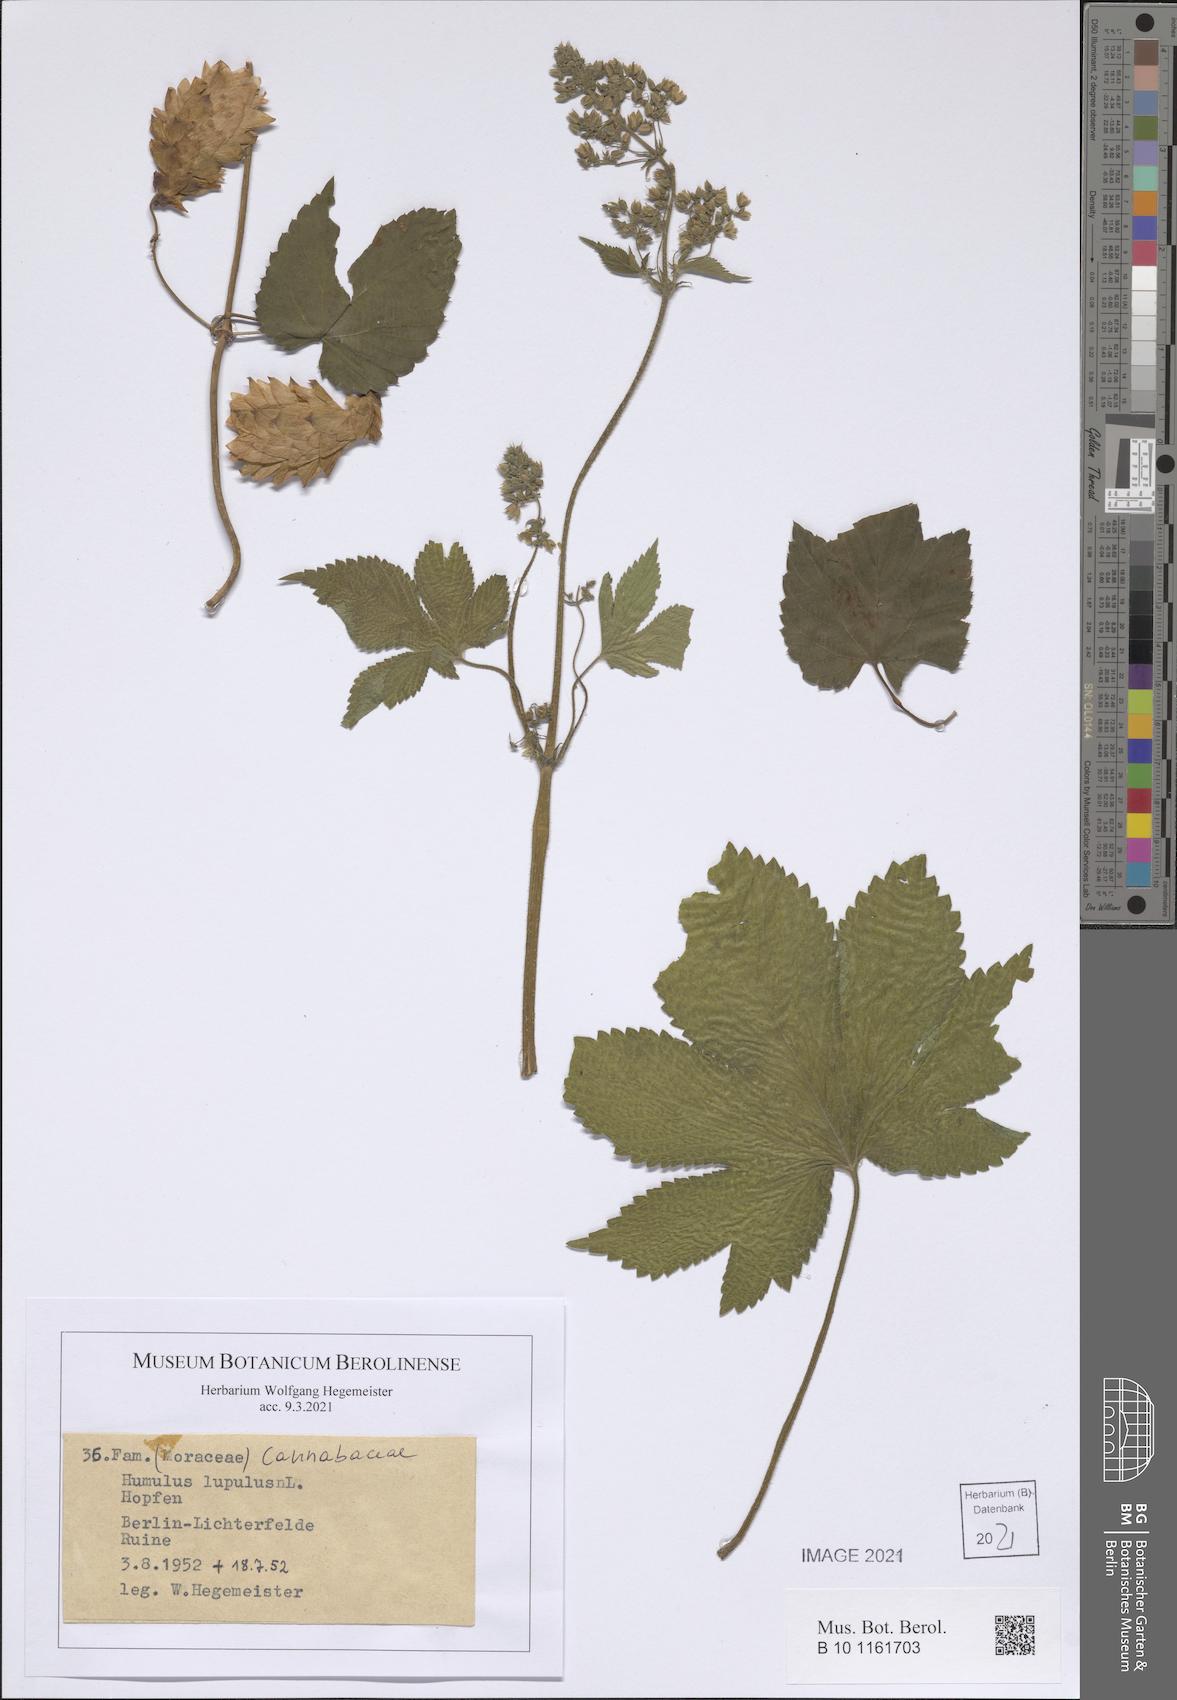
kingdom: Plantae
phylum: Tracheophyta
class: Magnoliopsida
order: Rosales
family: Cannabaceae
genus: Humulus
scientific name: Humulus lupulus
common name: Hop
